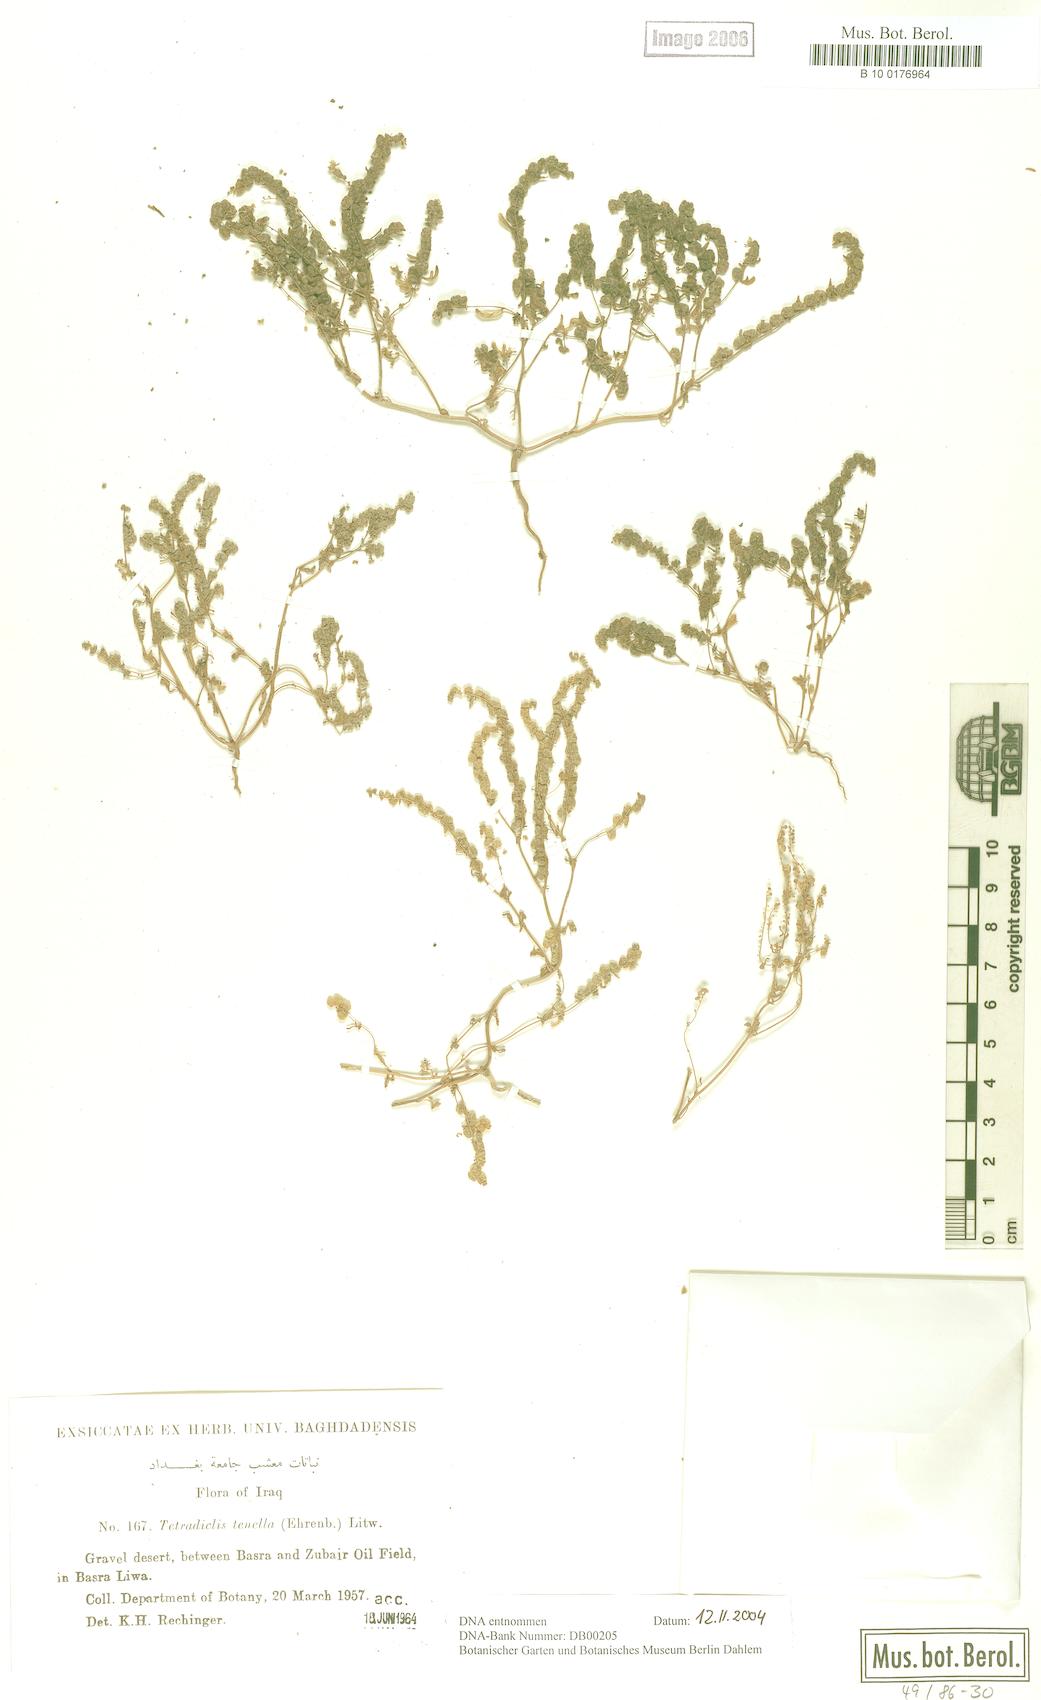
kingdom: Plantae
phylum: Tracheophyta
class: Magnoliopsida
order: Sapindales
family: Tetradiclidaceae
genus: Tetradiclis
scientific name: Tetradiclis tenella
